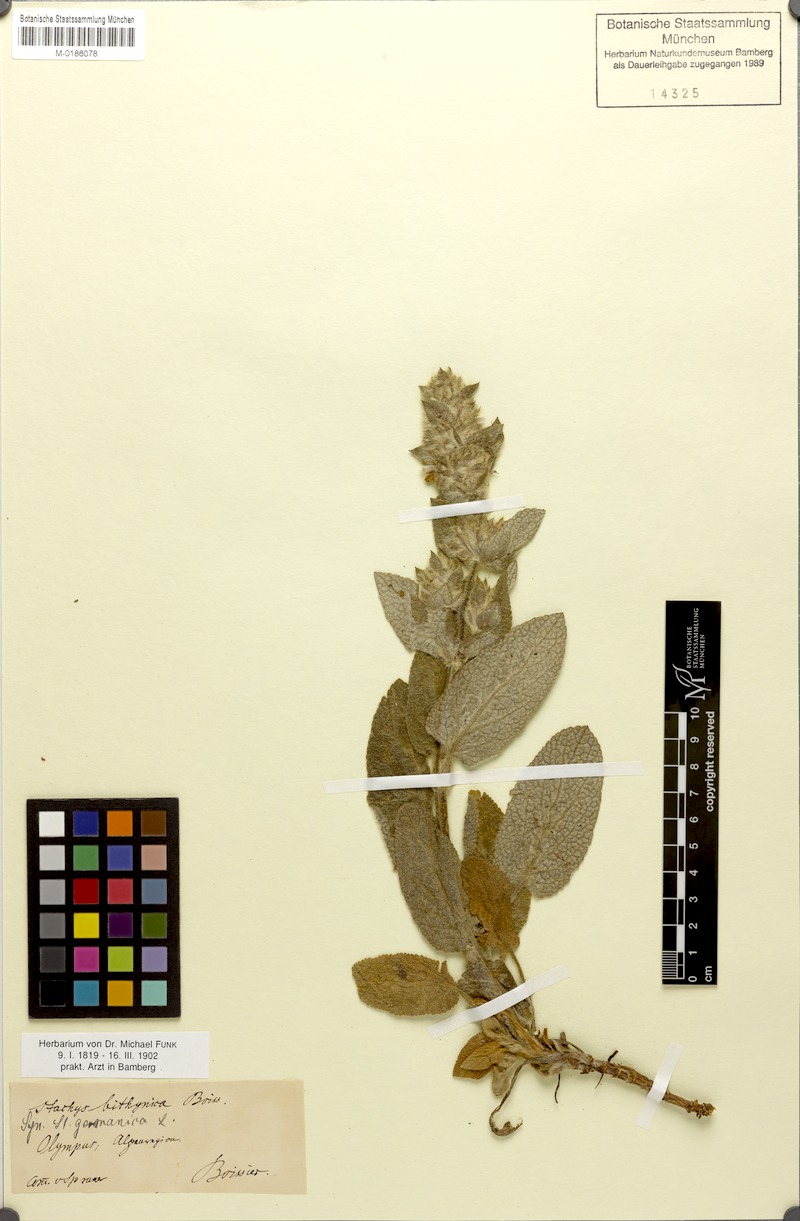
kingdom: Plantae
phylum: Tracheophyta
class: Magnoliopsida
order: Lamiales
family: Lamiaceae
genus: Stachys
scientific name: Stachys bithynica
